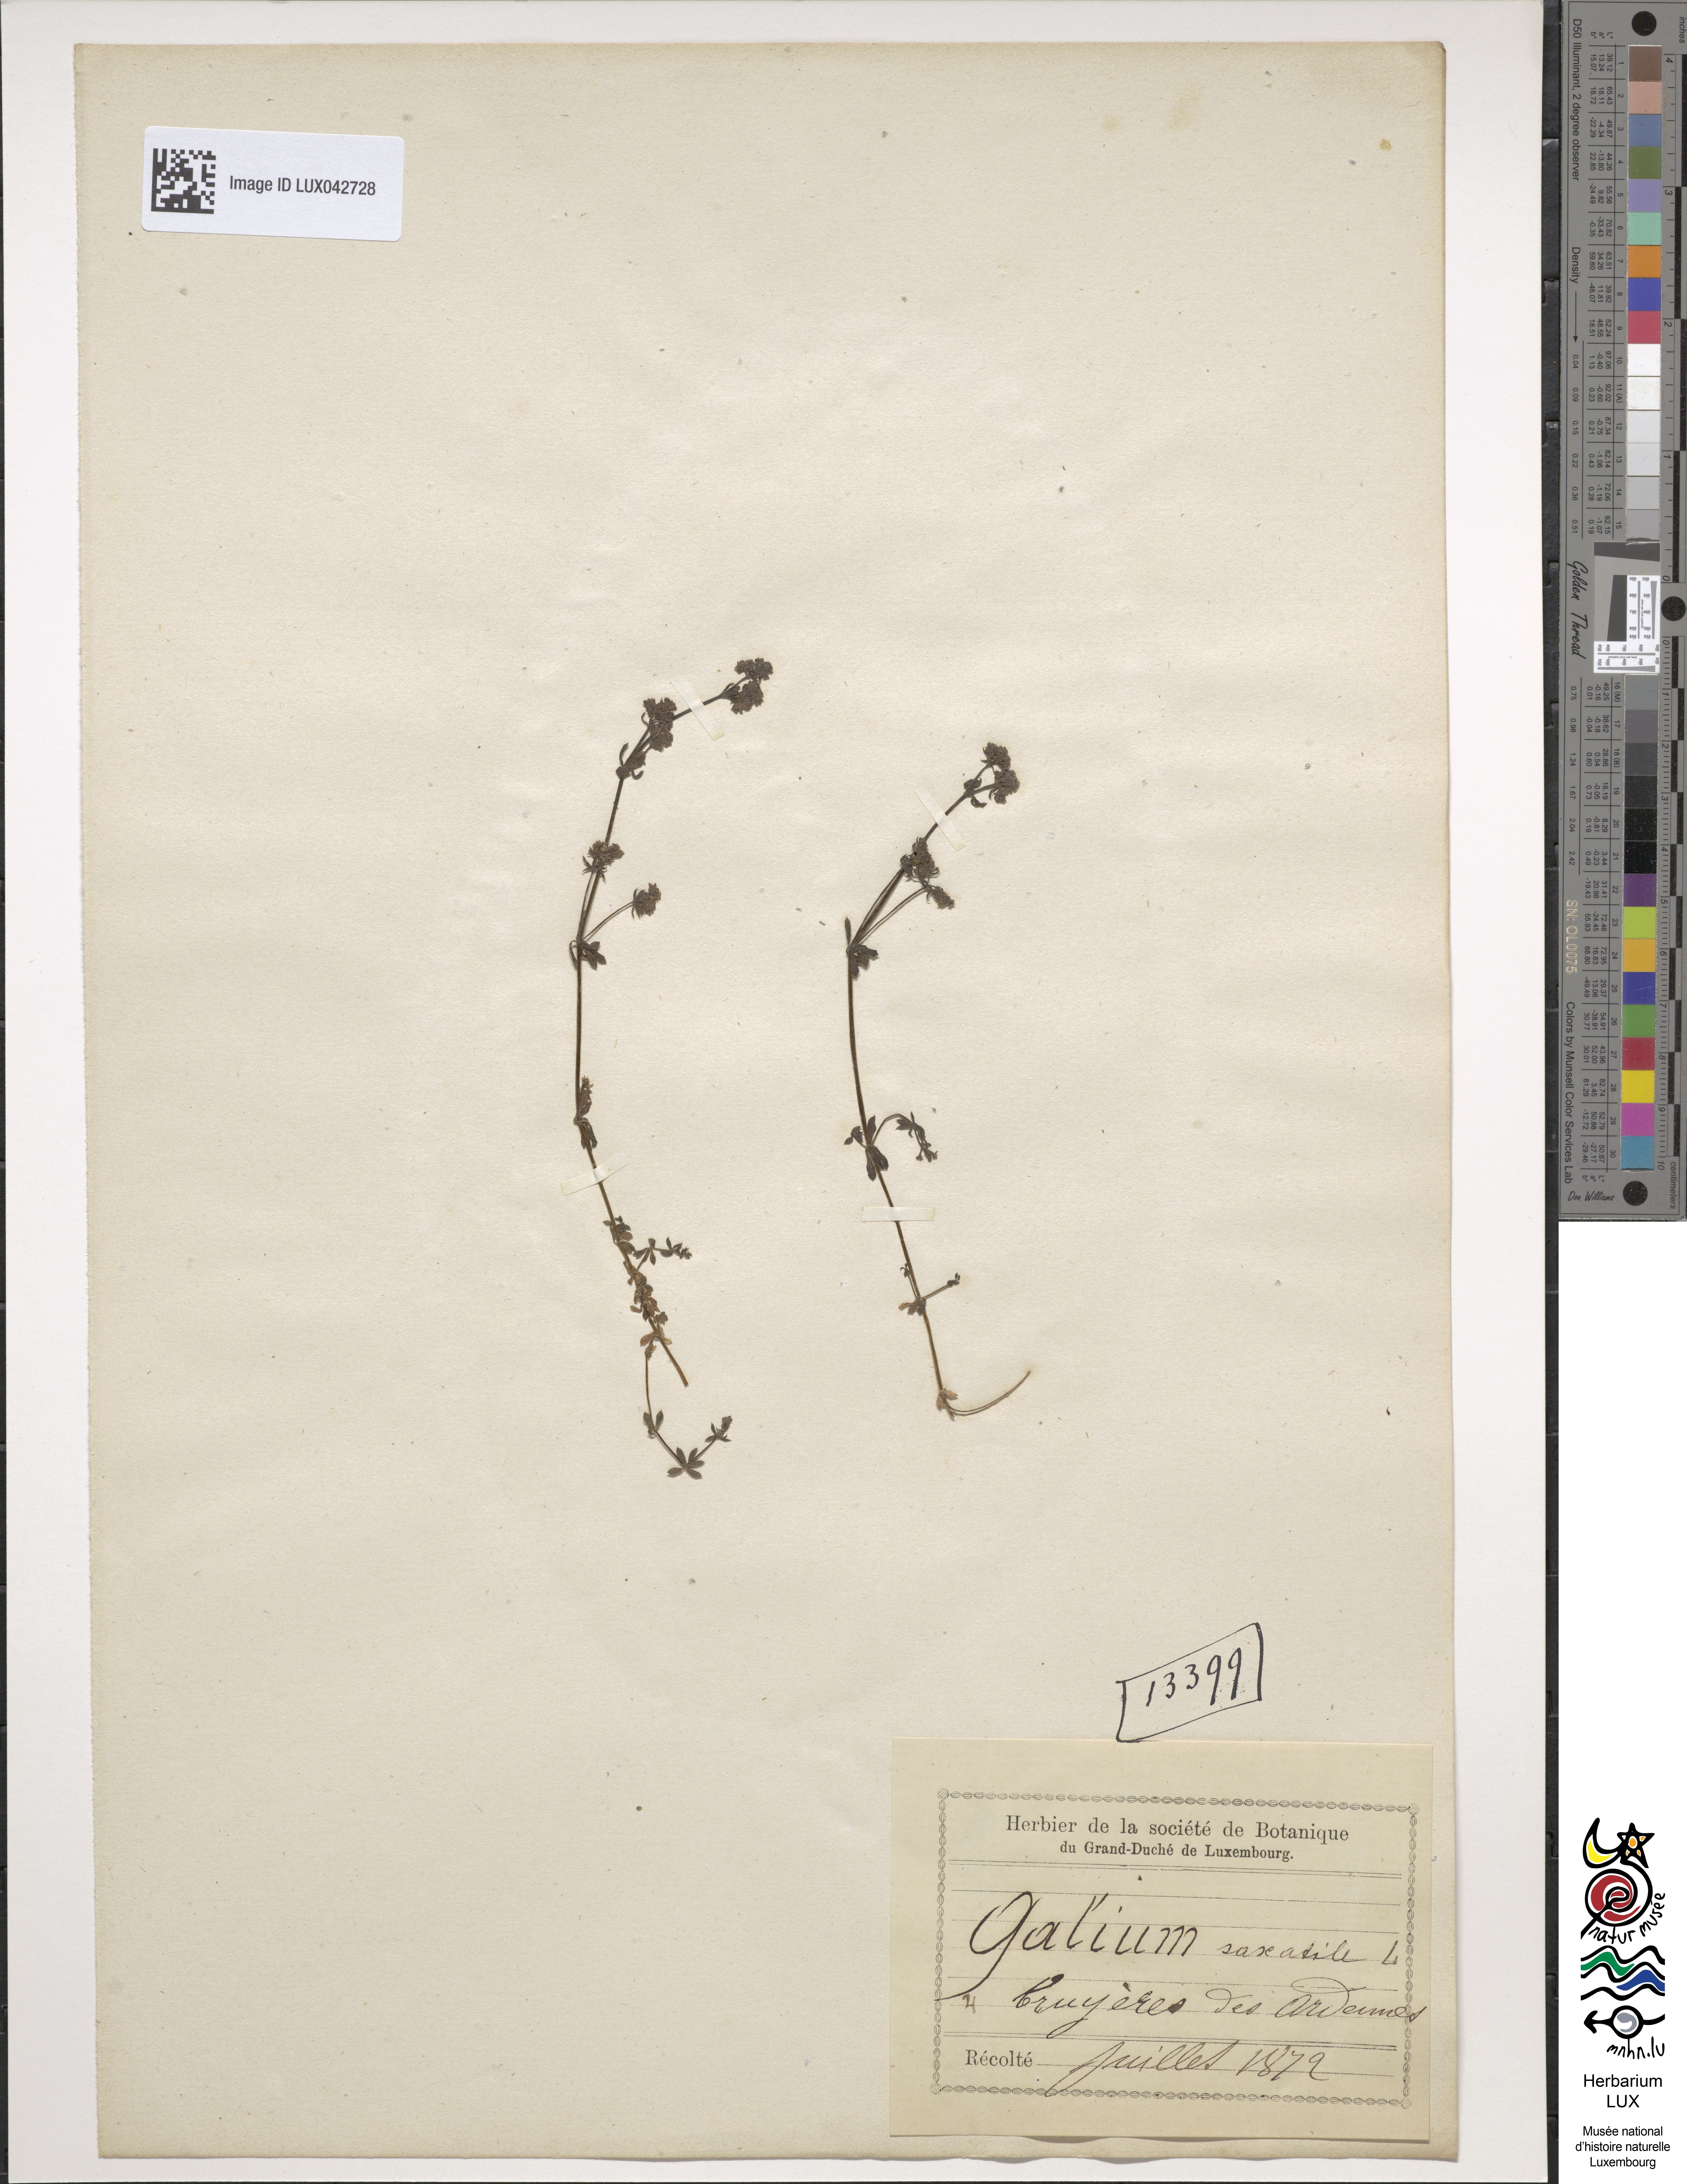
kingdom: Plantae
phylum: Tracheophyta
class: Magnoliopsida
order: Gentianales
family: Rubiaceae
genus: Galium
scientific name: Galium saxatile
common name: Heath bedstraw
